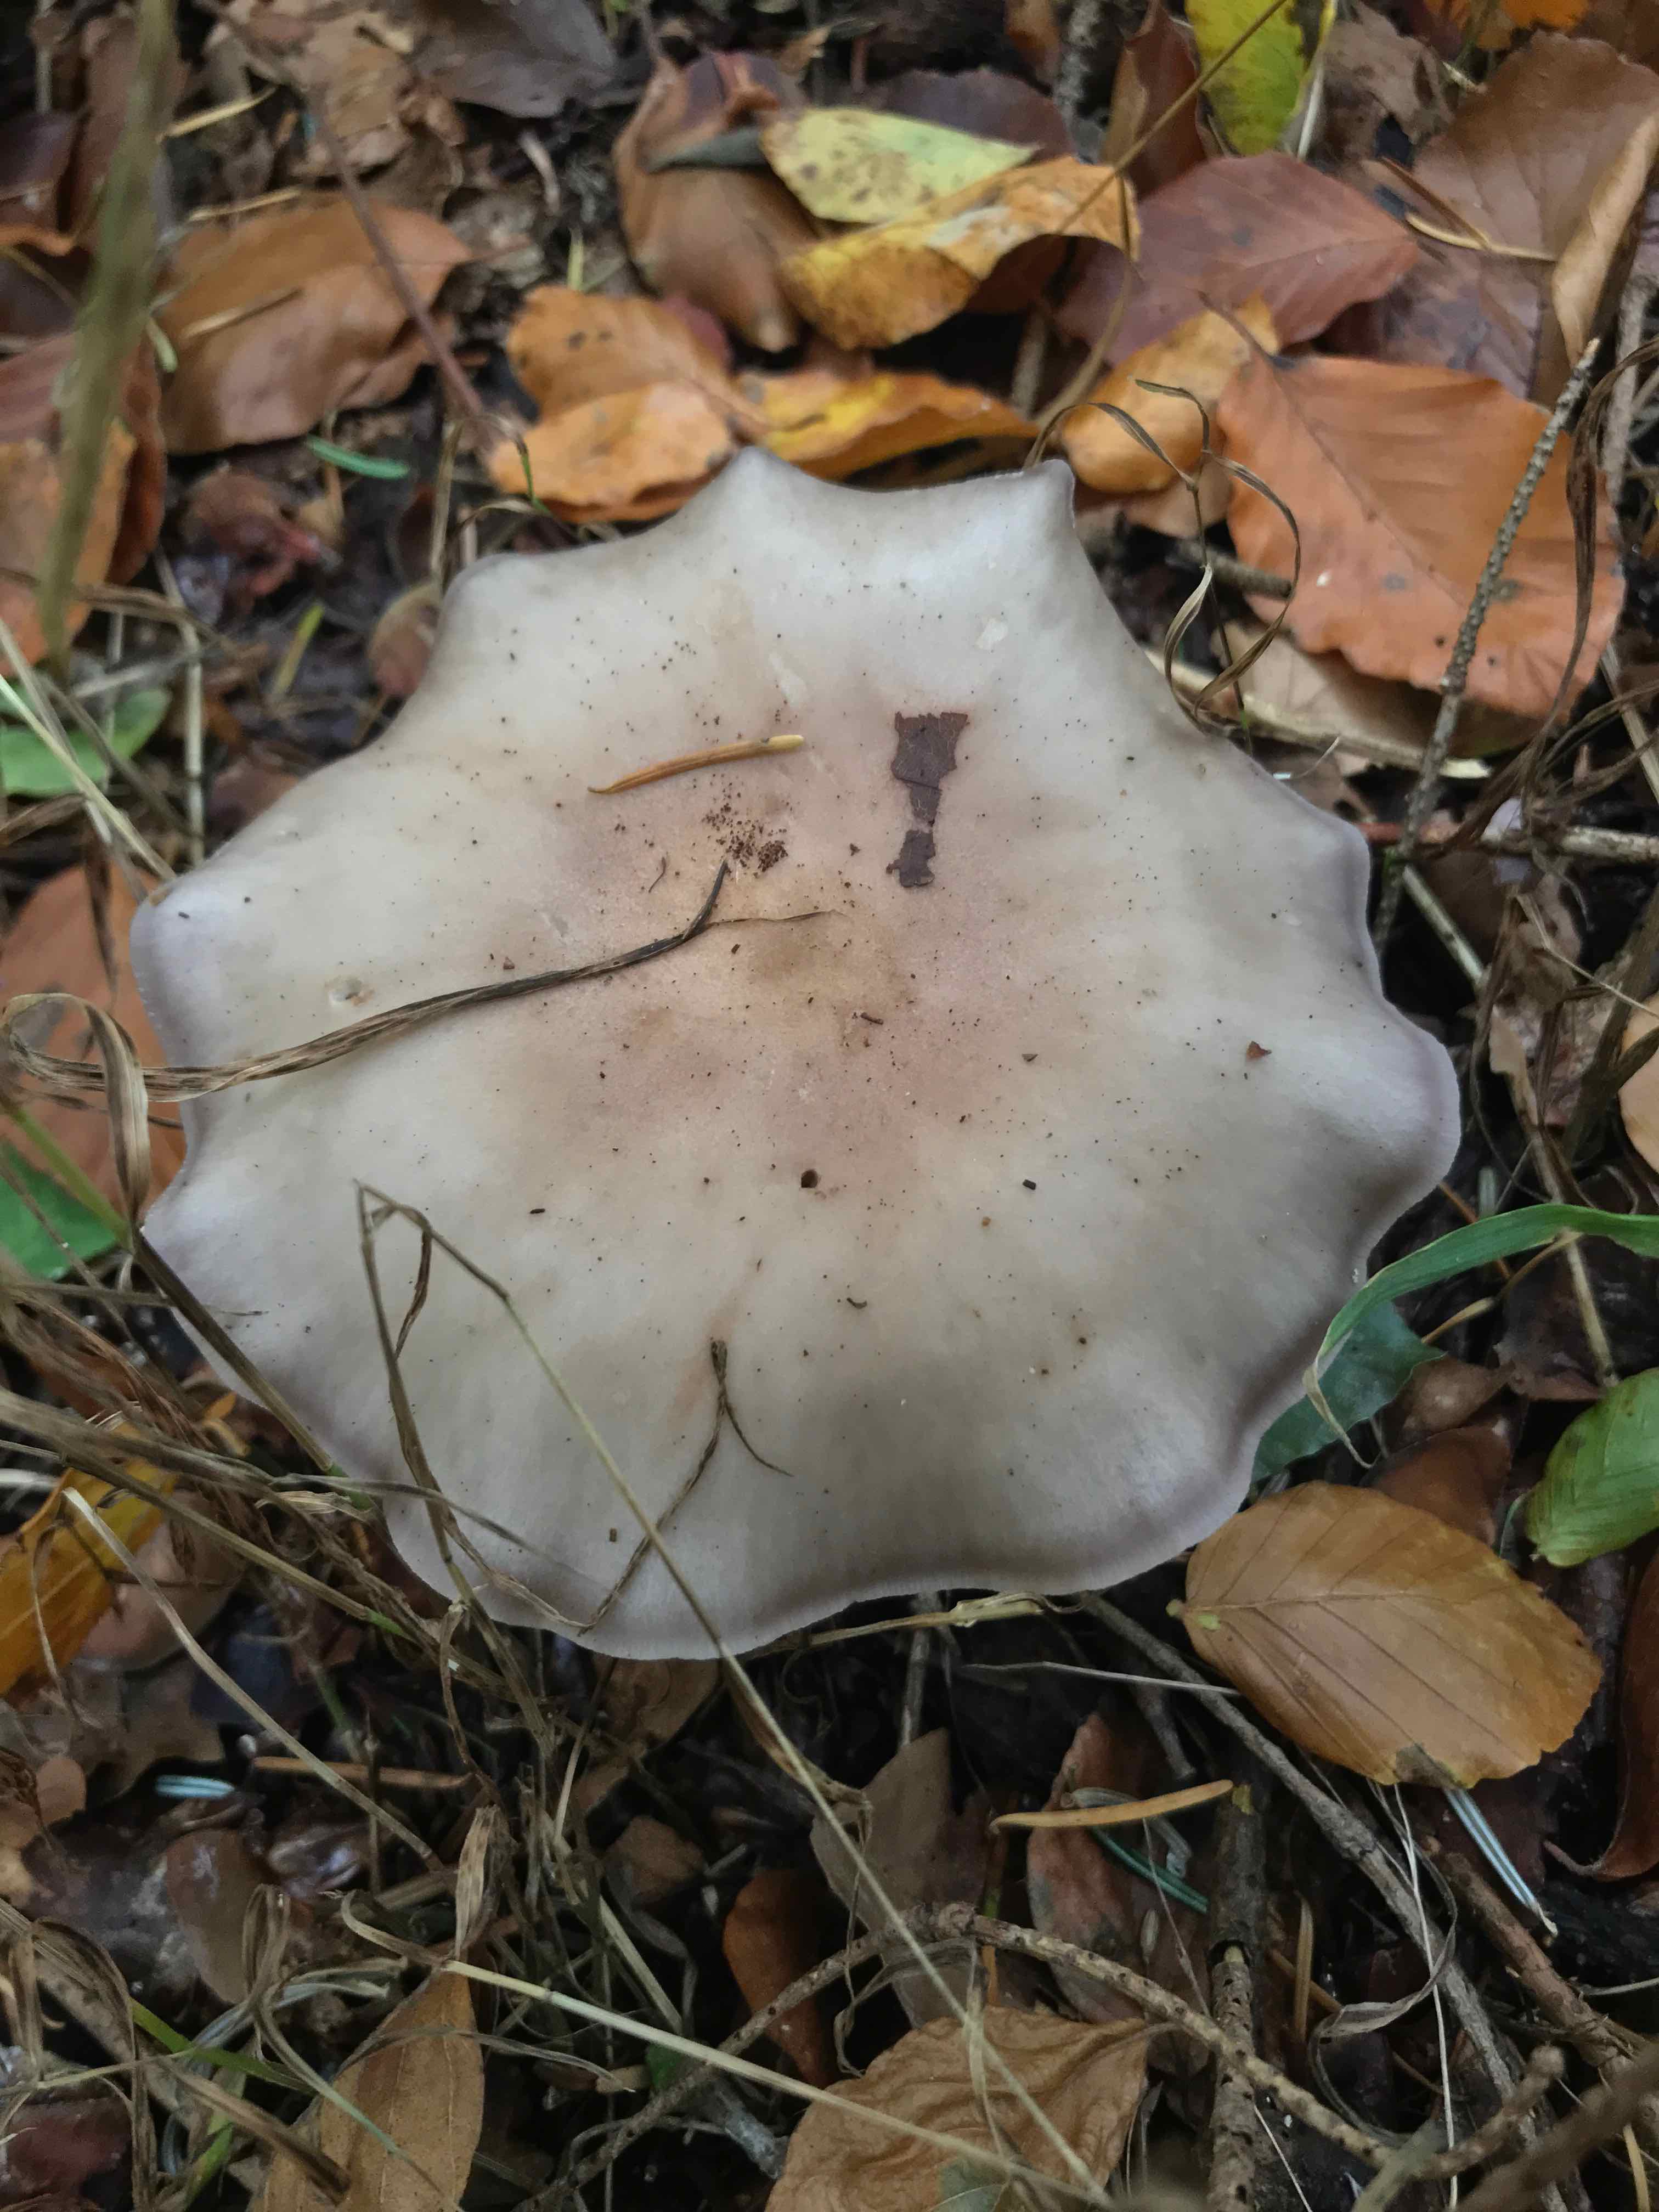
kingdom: Fungi
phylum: Basidiomycota
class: Agaricomycetes
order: Agaricales
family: Tricholomataceae
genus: Lepista
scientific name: Lepista nuda
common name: violet hekseringshat
